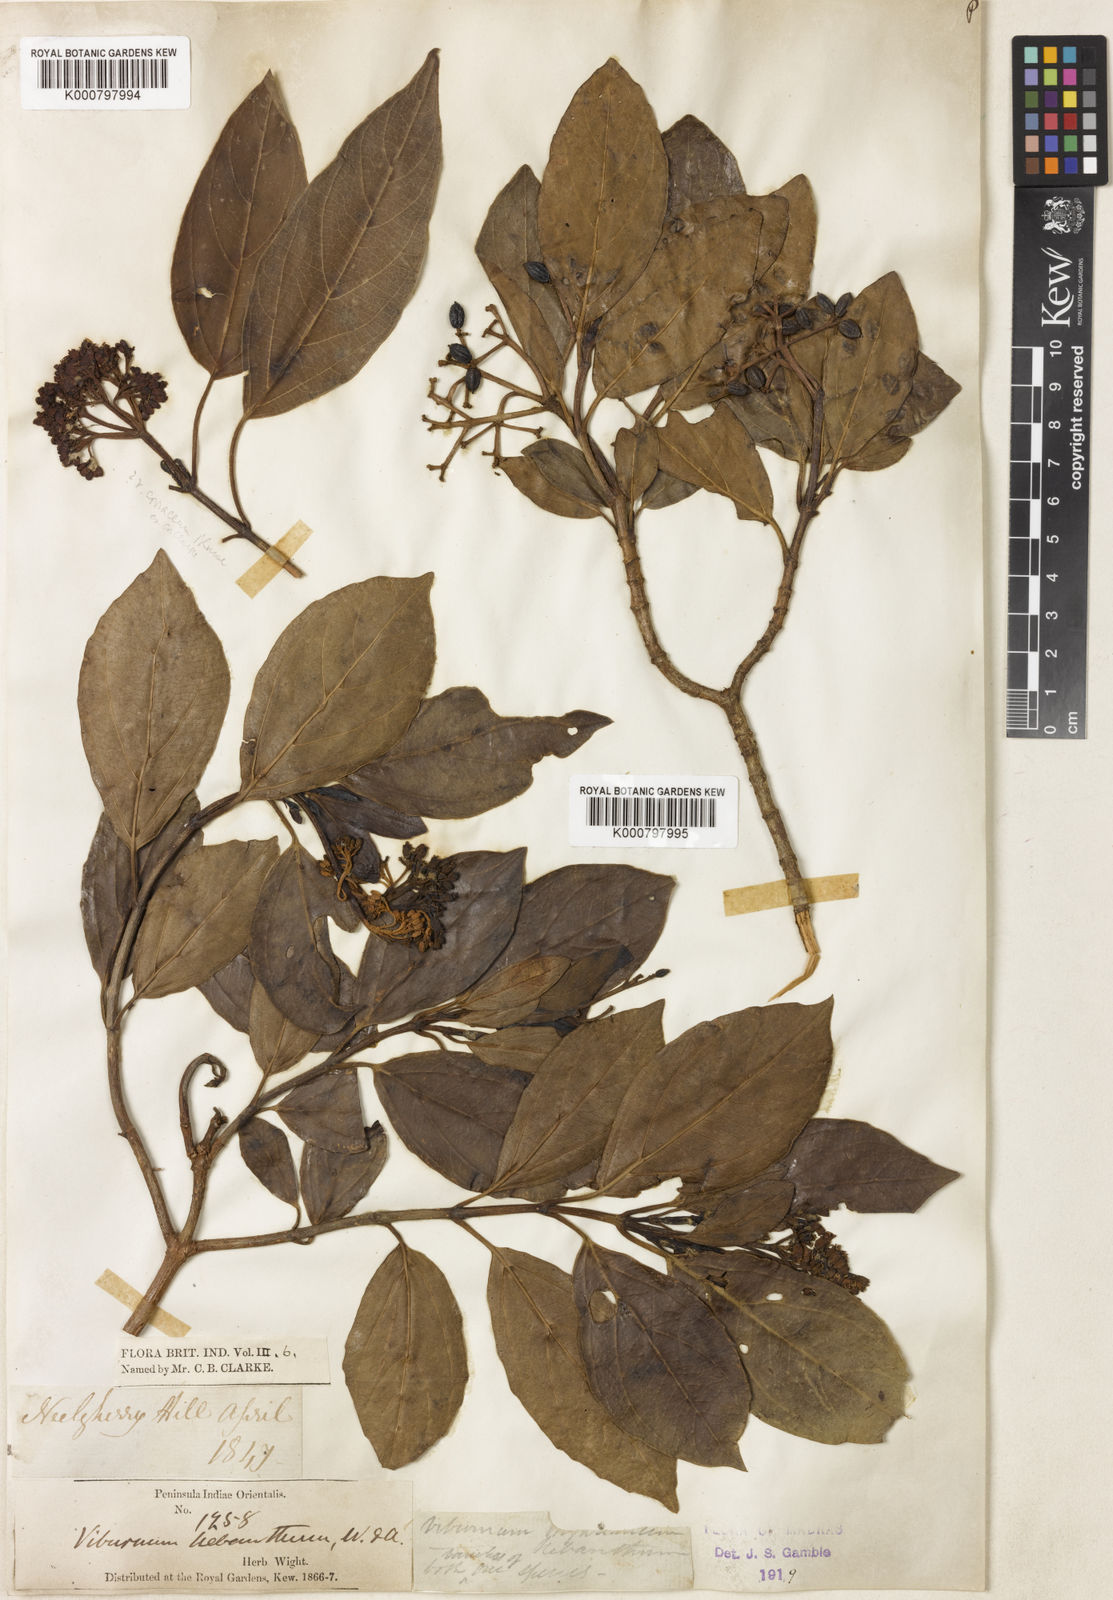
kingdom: Plantae
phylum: Tracheophyta
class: Magnoliopsida
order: Dipsacales
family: Viburnaceae
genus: Viburnum
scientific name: Viburnum coriaceum
